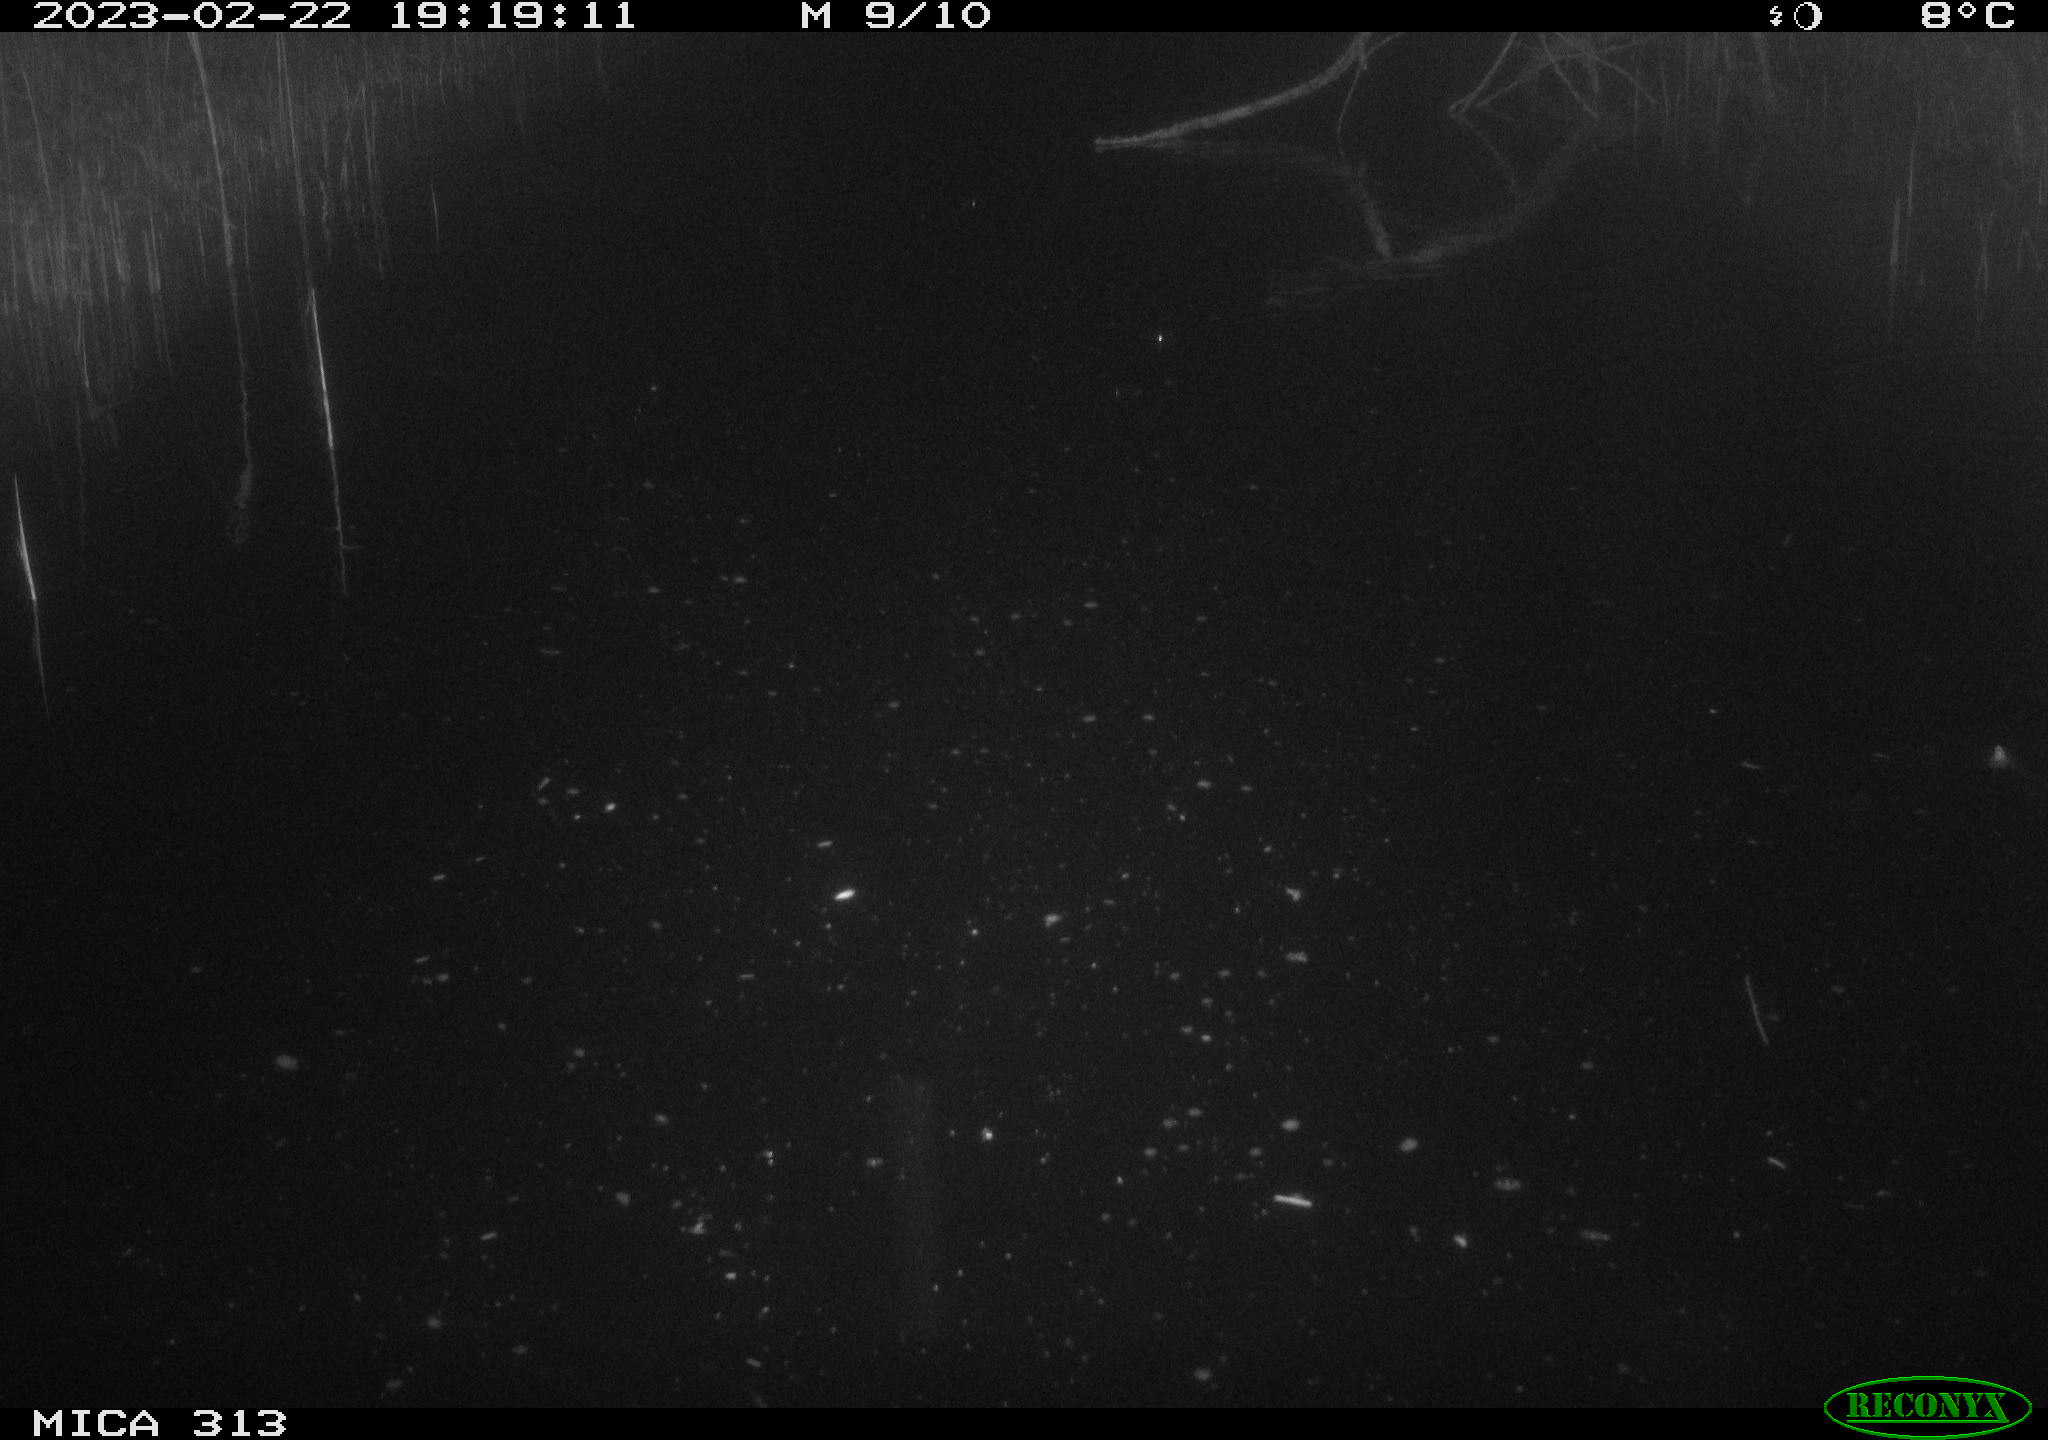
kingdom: Animalia
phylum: Chordata
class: Aves
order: Anseriformes
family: Anatidae
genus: Anas
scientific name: Anas
